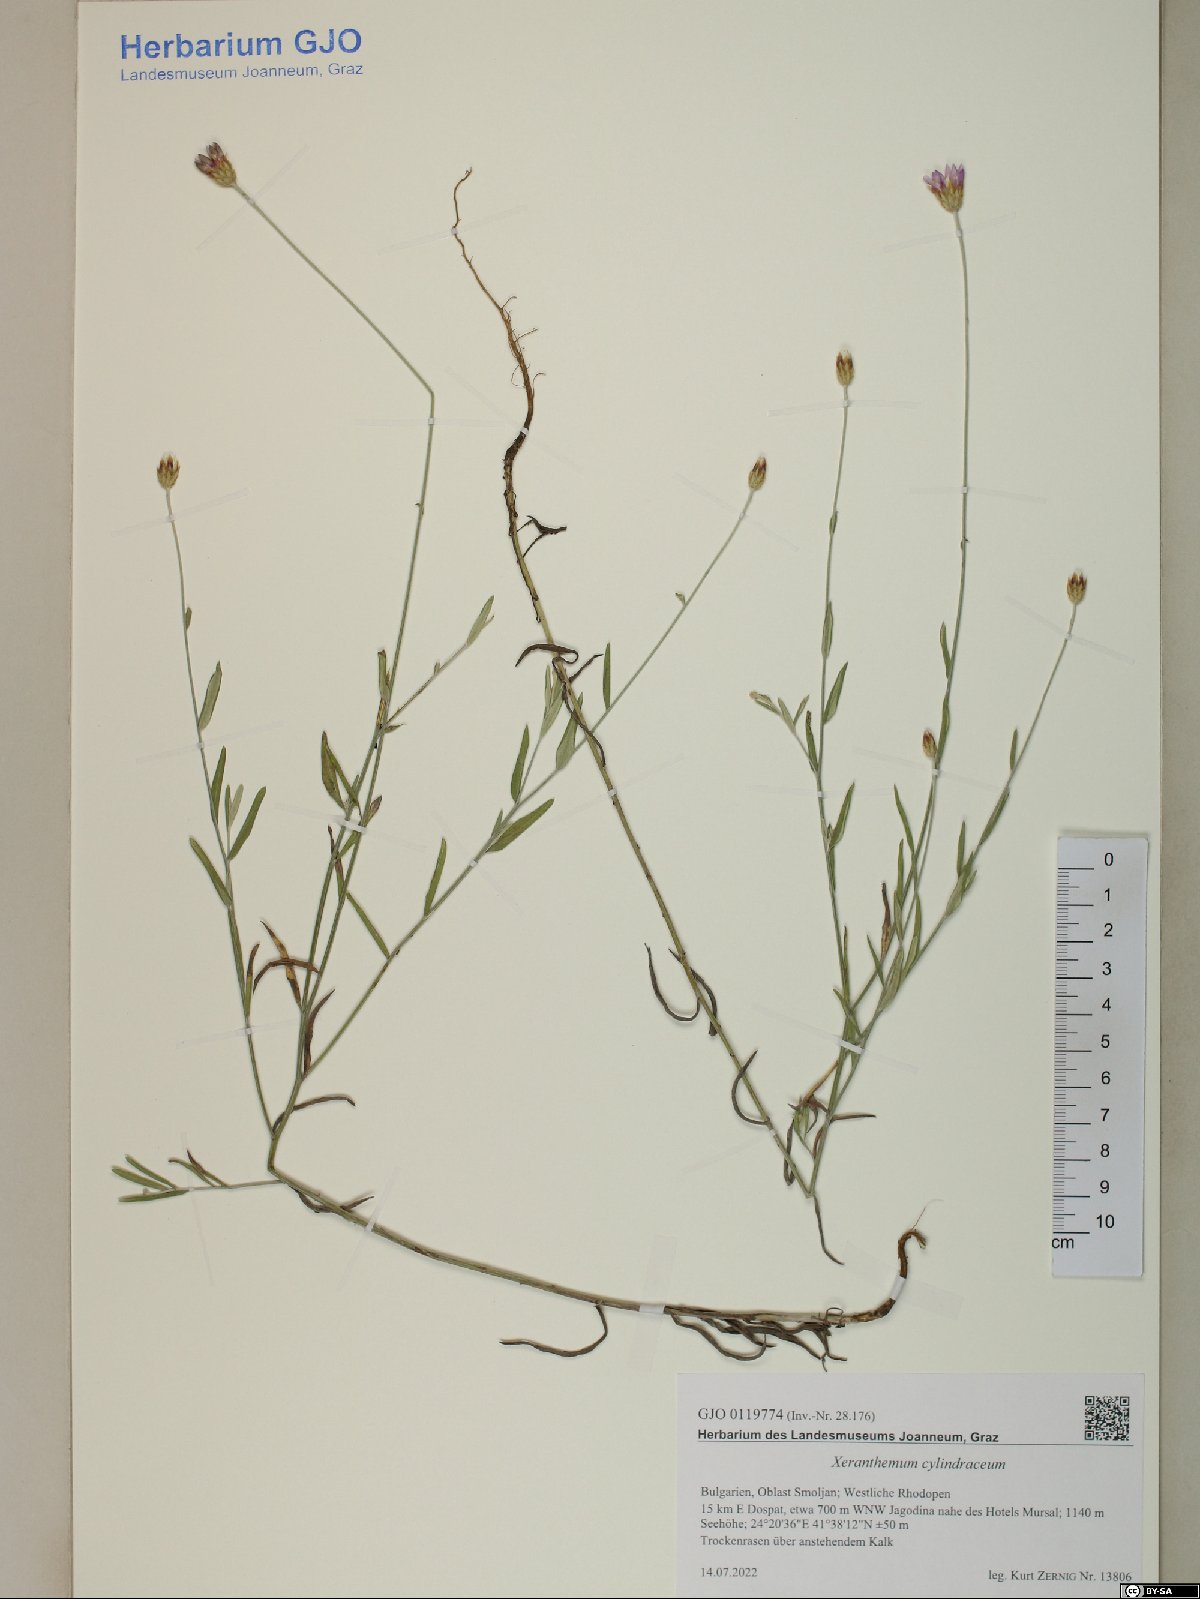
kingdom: Plantae
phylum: Tracheophyta
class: Magnoliopsida
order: Asterales
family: Asteraceae
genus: Xeranthemum
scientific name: Xeranthemum cylindraceum
